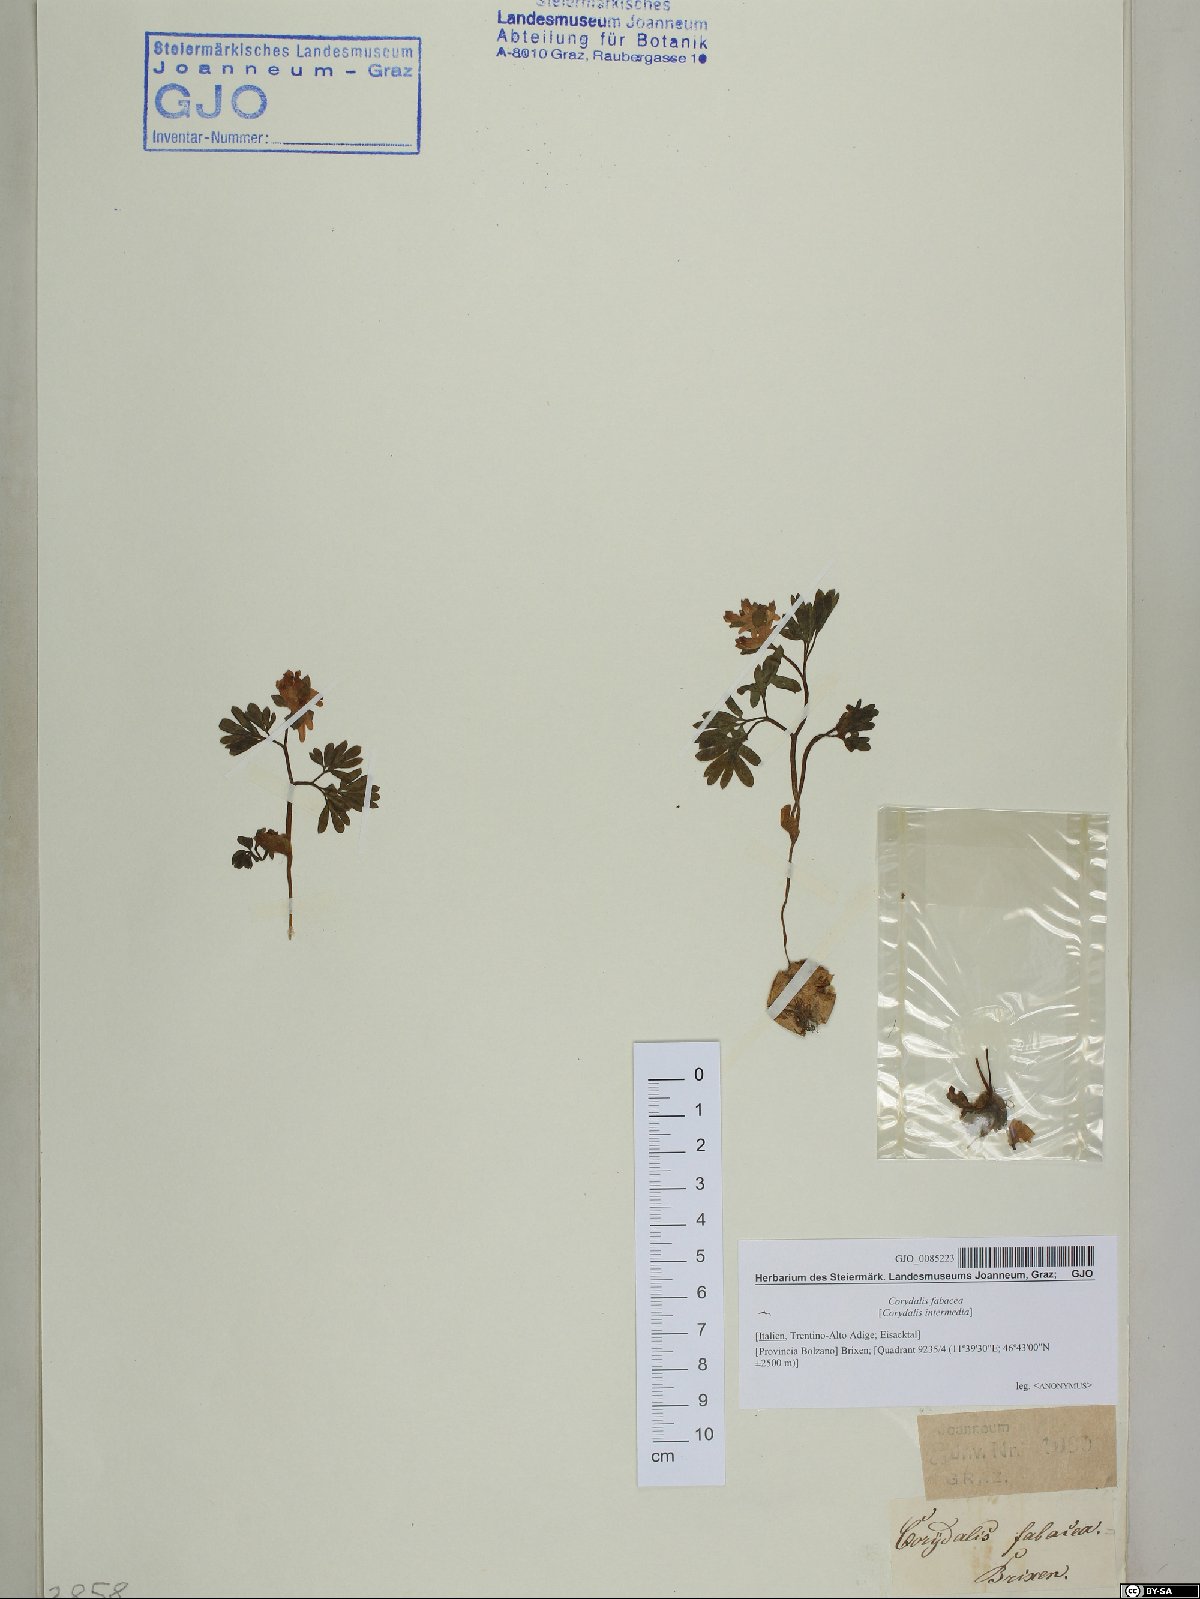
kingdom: Plantae
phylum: Tracheophyta
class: Magnoliopsida
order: Ranunculales
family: Papaveraceae
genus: Corydalis
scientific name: Corydalis intermedia
